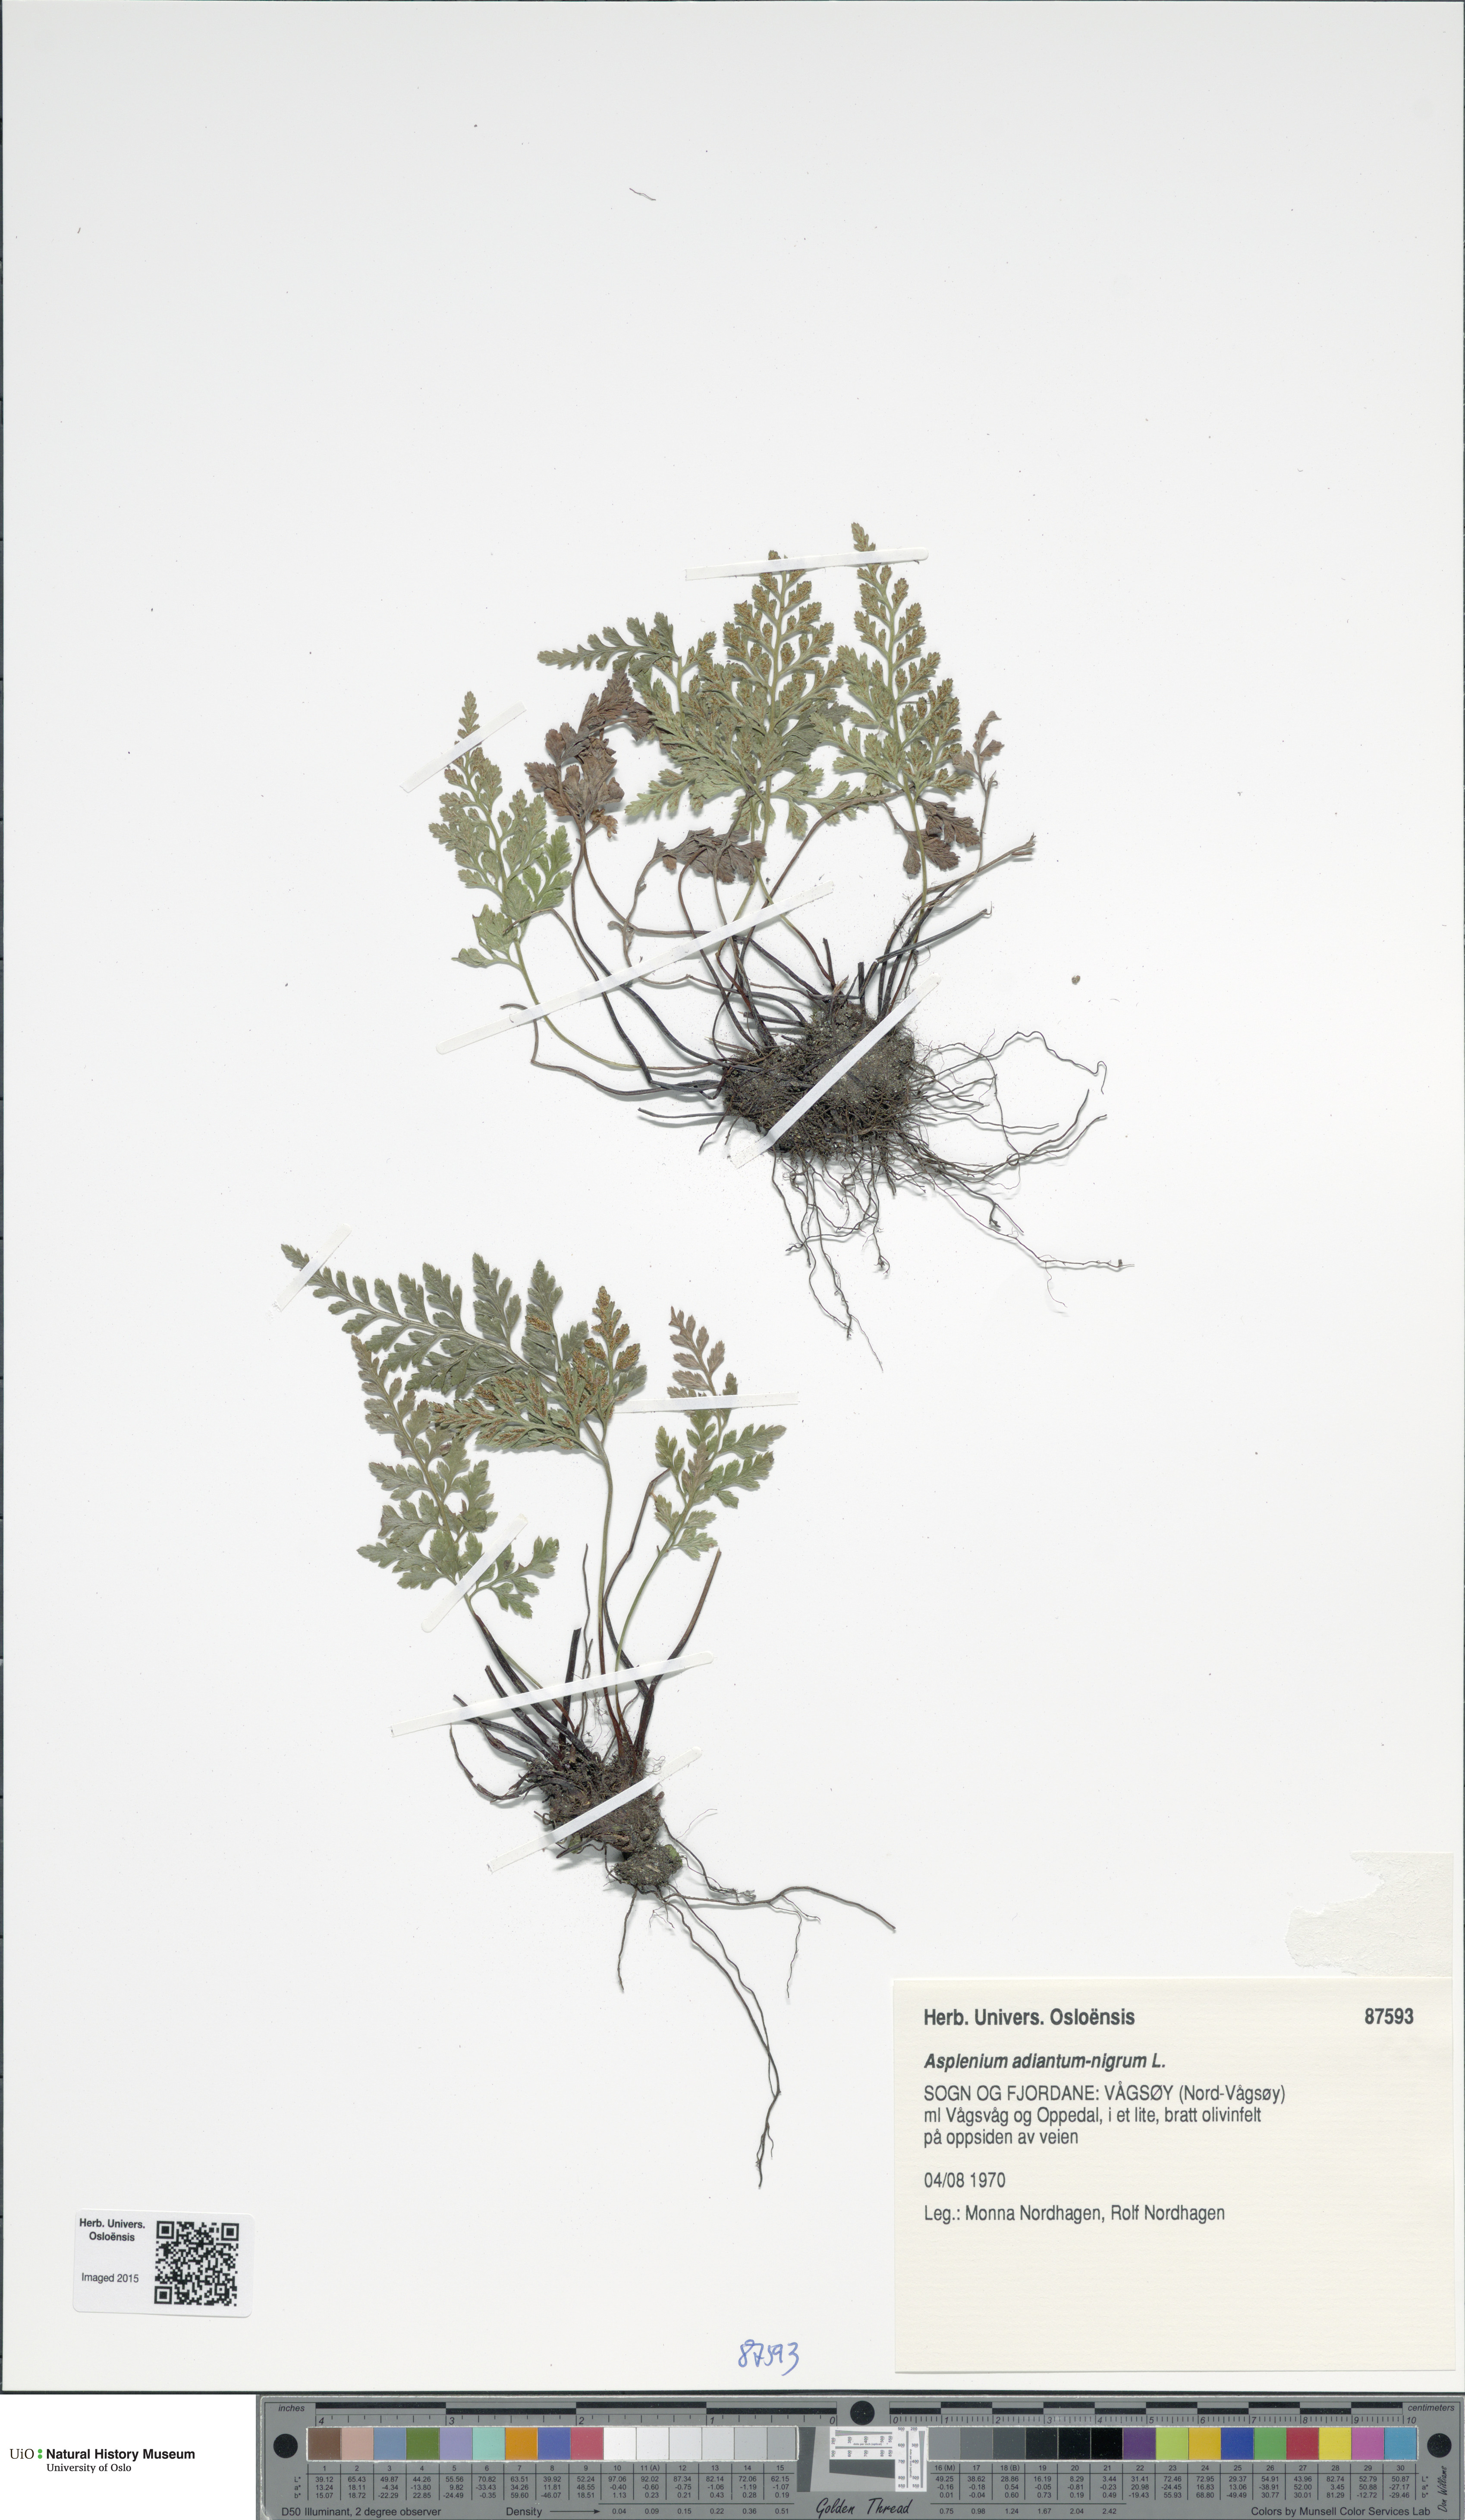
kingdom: Plantae
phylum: Tracheophyta
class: Polypodiopsida
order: Polypodiales
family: Aspleniaceae
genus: Asplenium
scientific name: Asplenium adiantum-nigrum
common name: Black spleenwort
